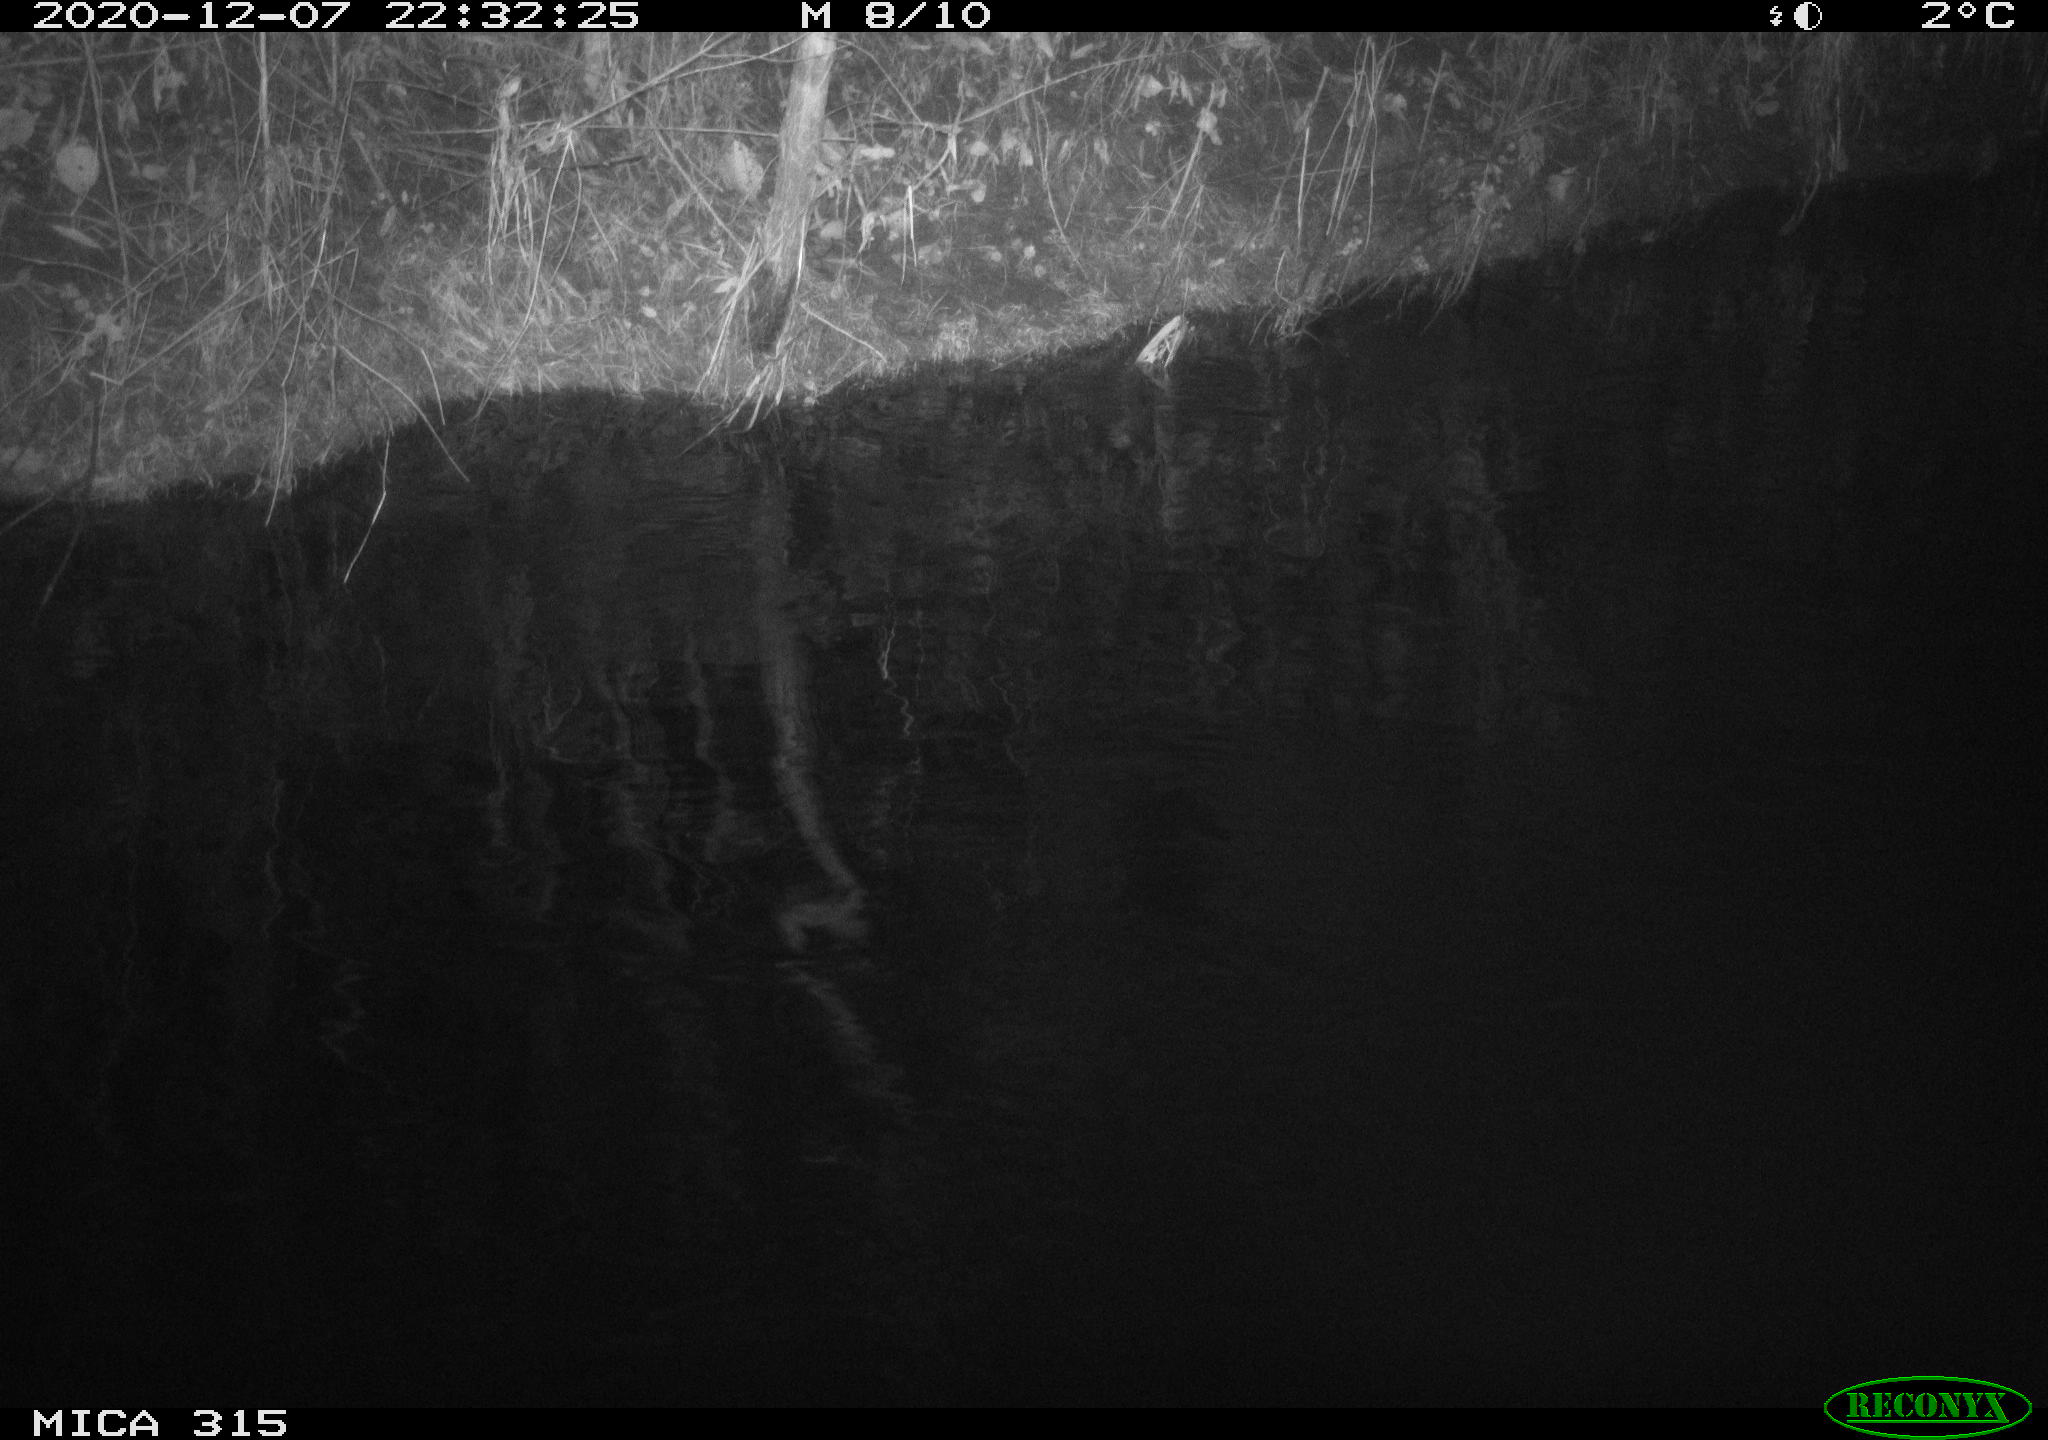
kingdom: Animalia
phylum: Chordata
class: Aves
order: Anseriformes
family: Anatidae
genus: Anas
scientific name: Anas platyrhynchos
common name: Mallard
